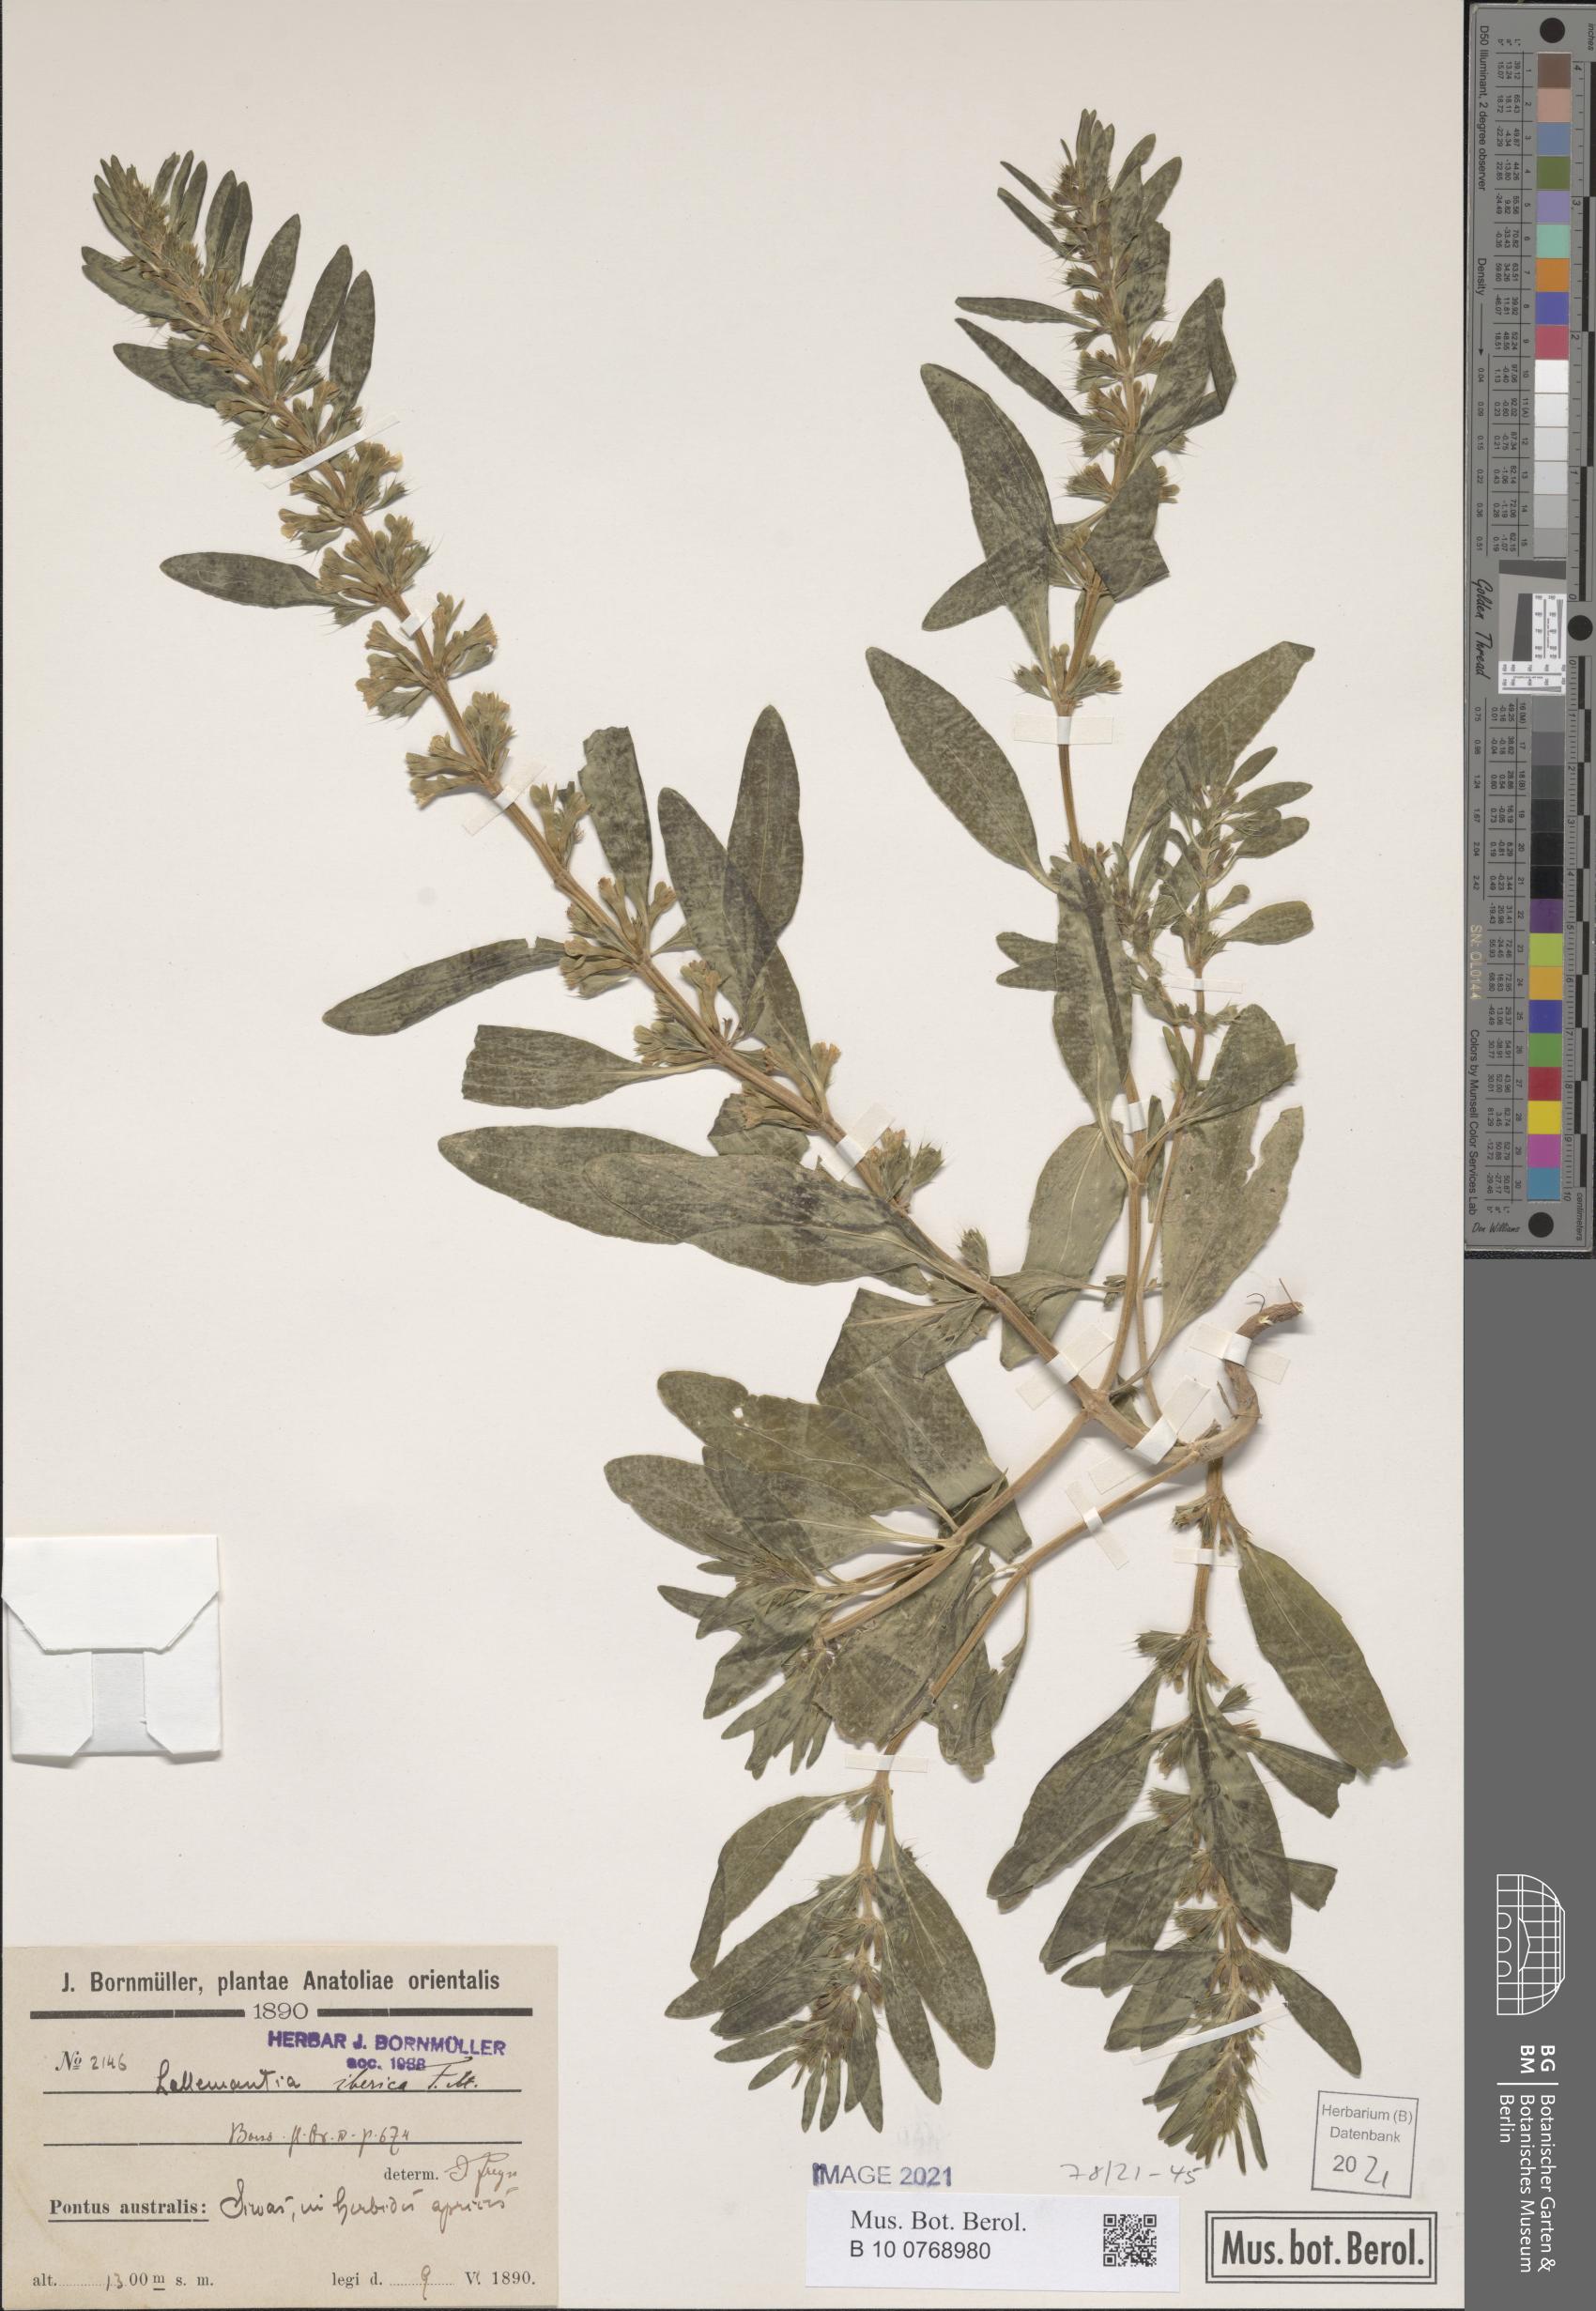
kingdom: Plantae
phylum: Tracheophyta
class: Magnoliopsida
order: Lamiales
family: Lamiaceae
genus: Lallemantia
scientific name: Lallemantia iberica
